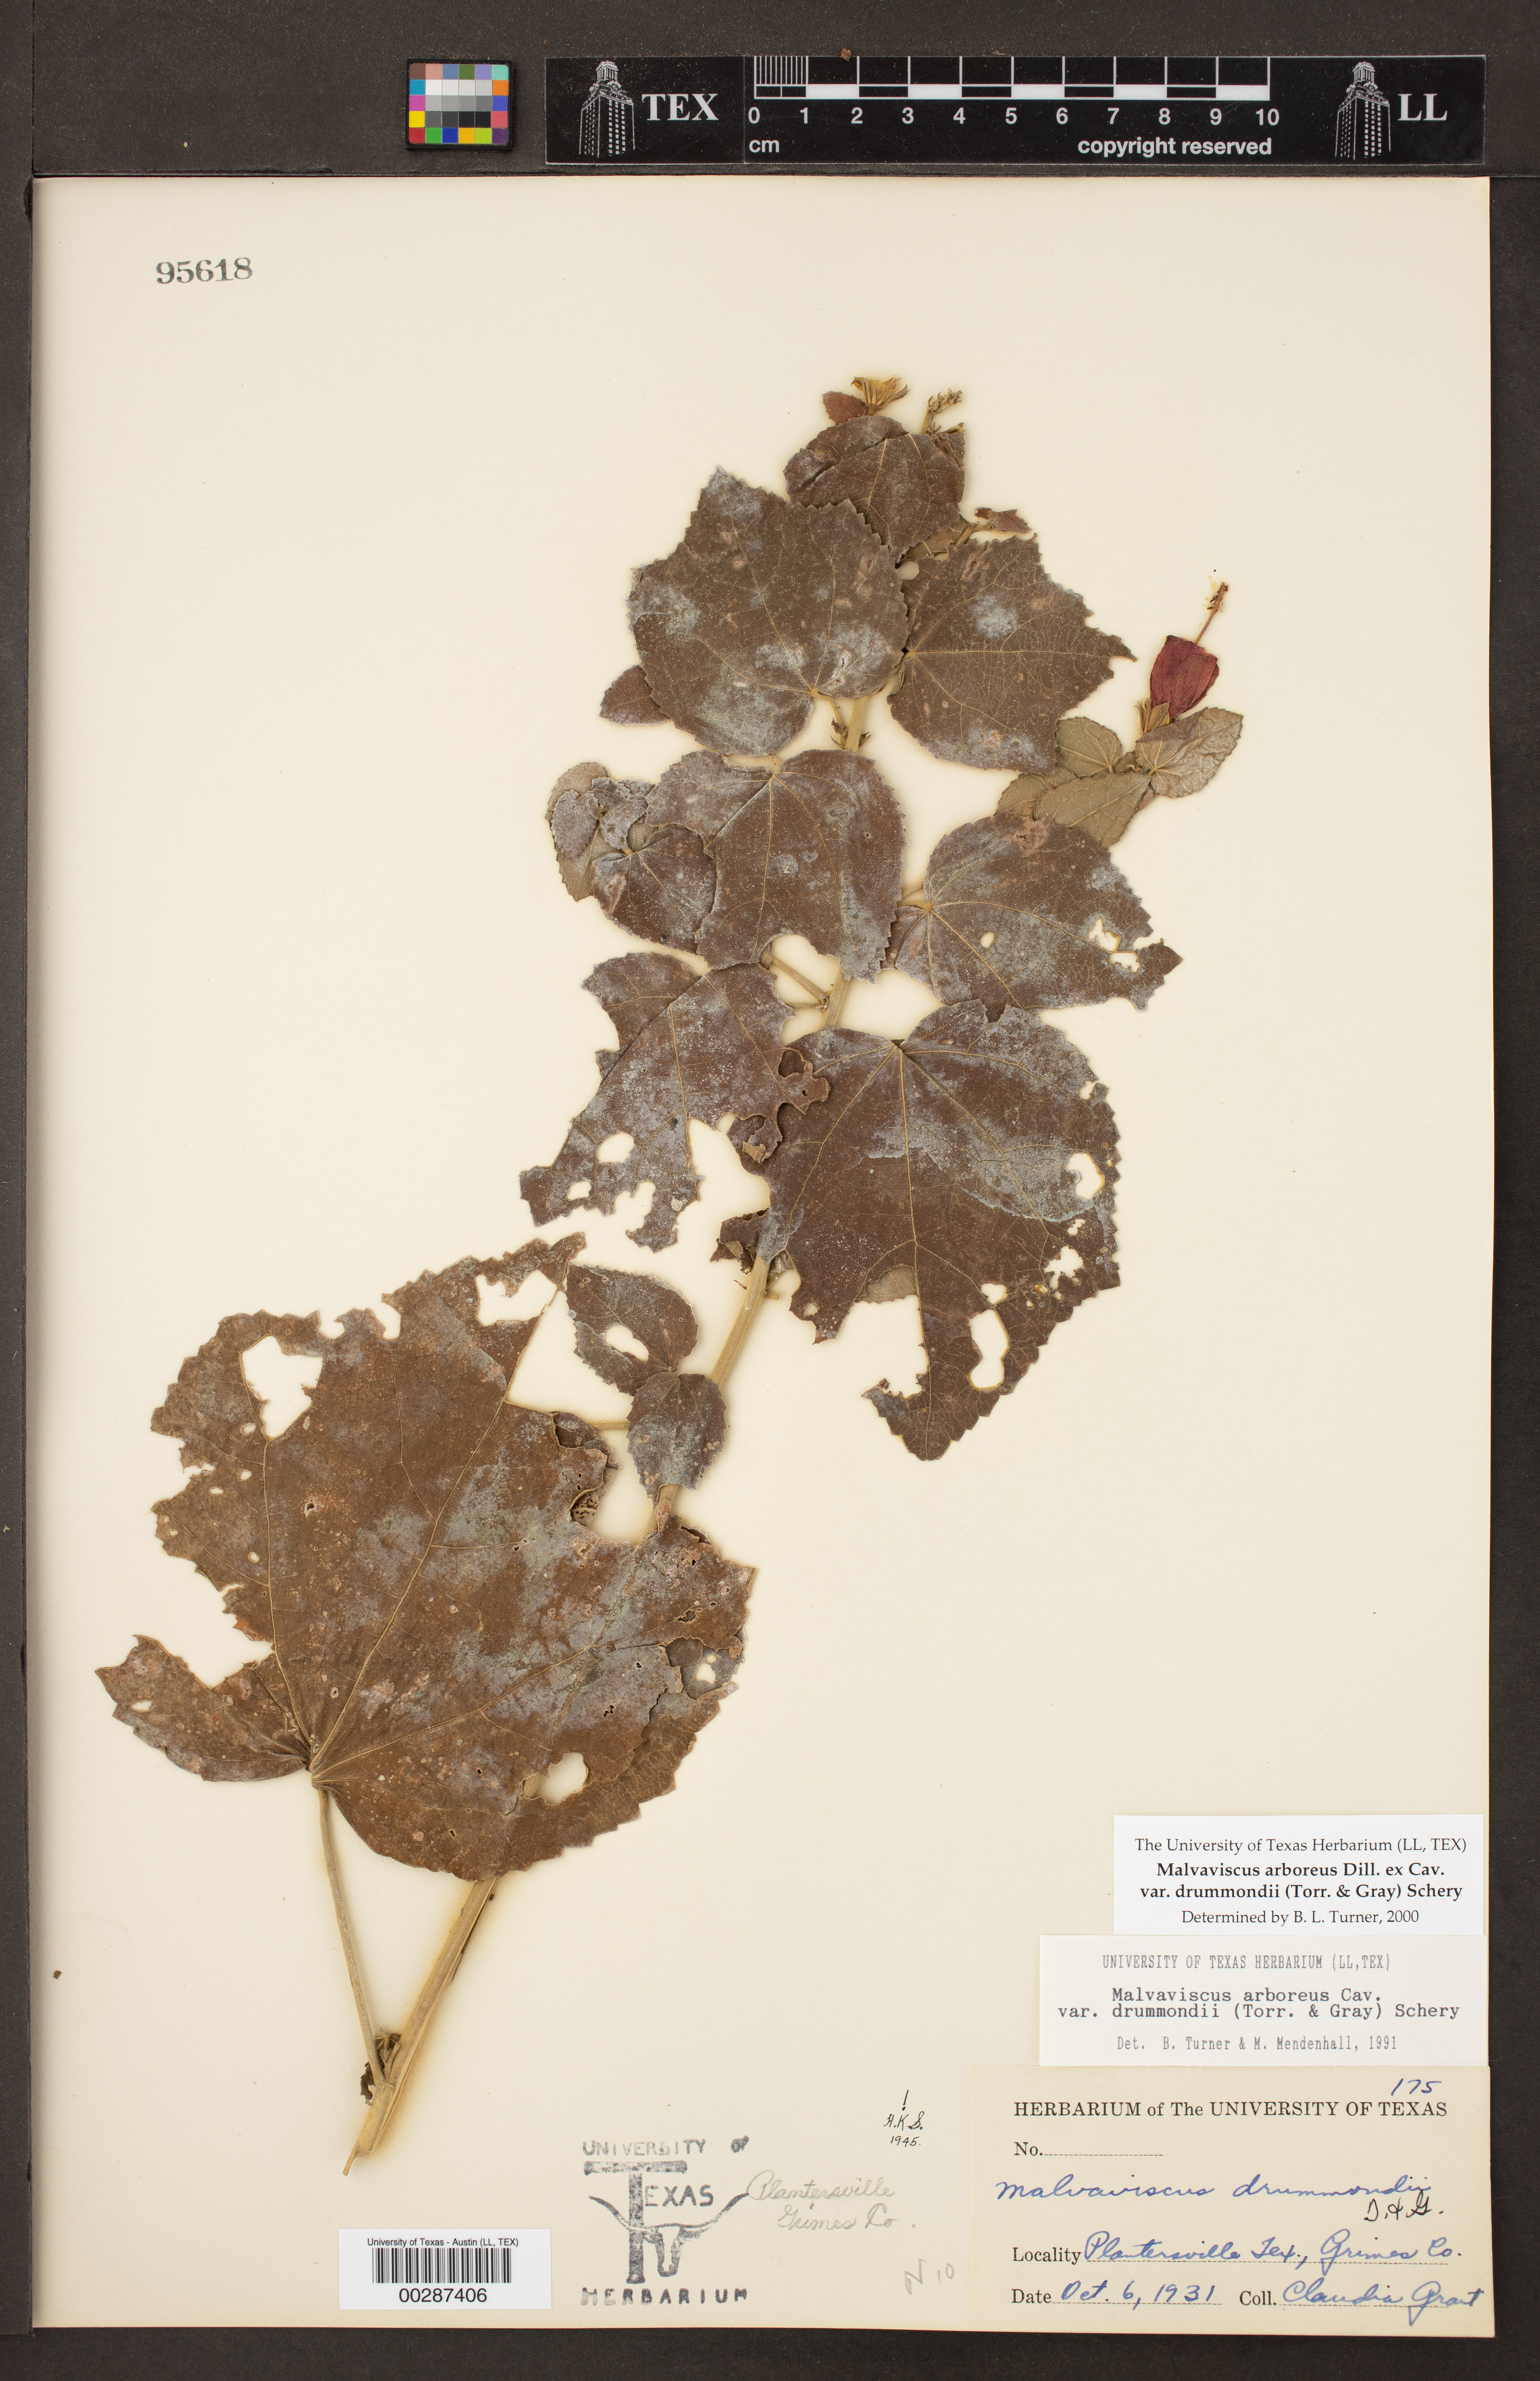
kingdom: Plantae
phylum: Tracheophyta
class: Magnoliopsida
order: Malvales
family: Malvaceae
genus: Malvaviscus
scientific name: Malvaviscus arboreus
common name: Wax mallow
